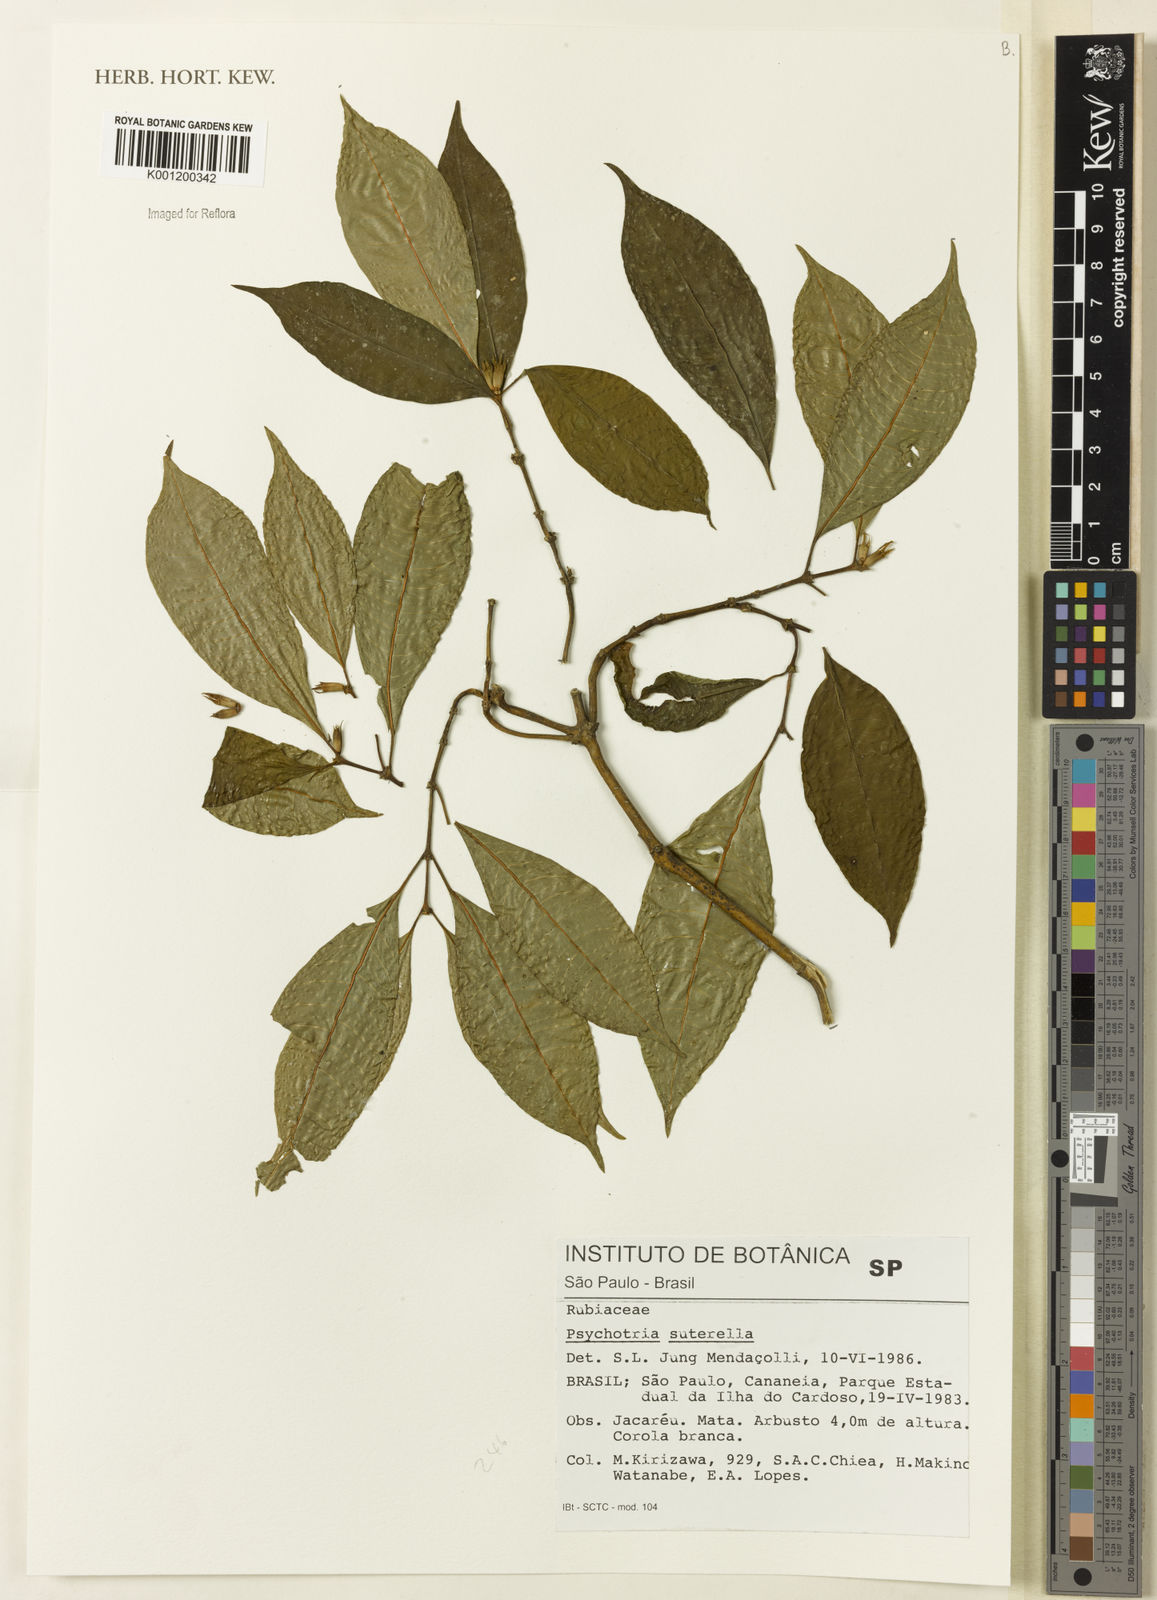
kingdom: Plantae
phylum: Tracheophyta
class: Magnoliopsida
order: Gentianales
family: Rubiaceae
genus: Psychotria
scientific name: Psychotria
